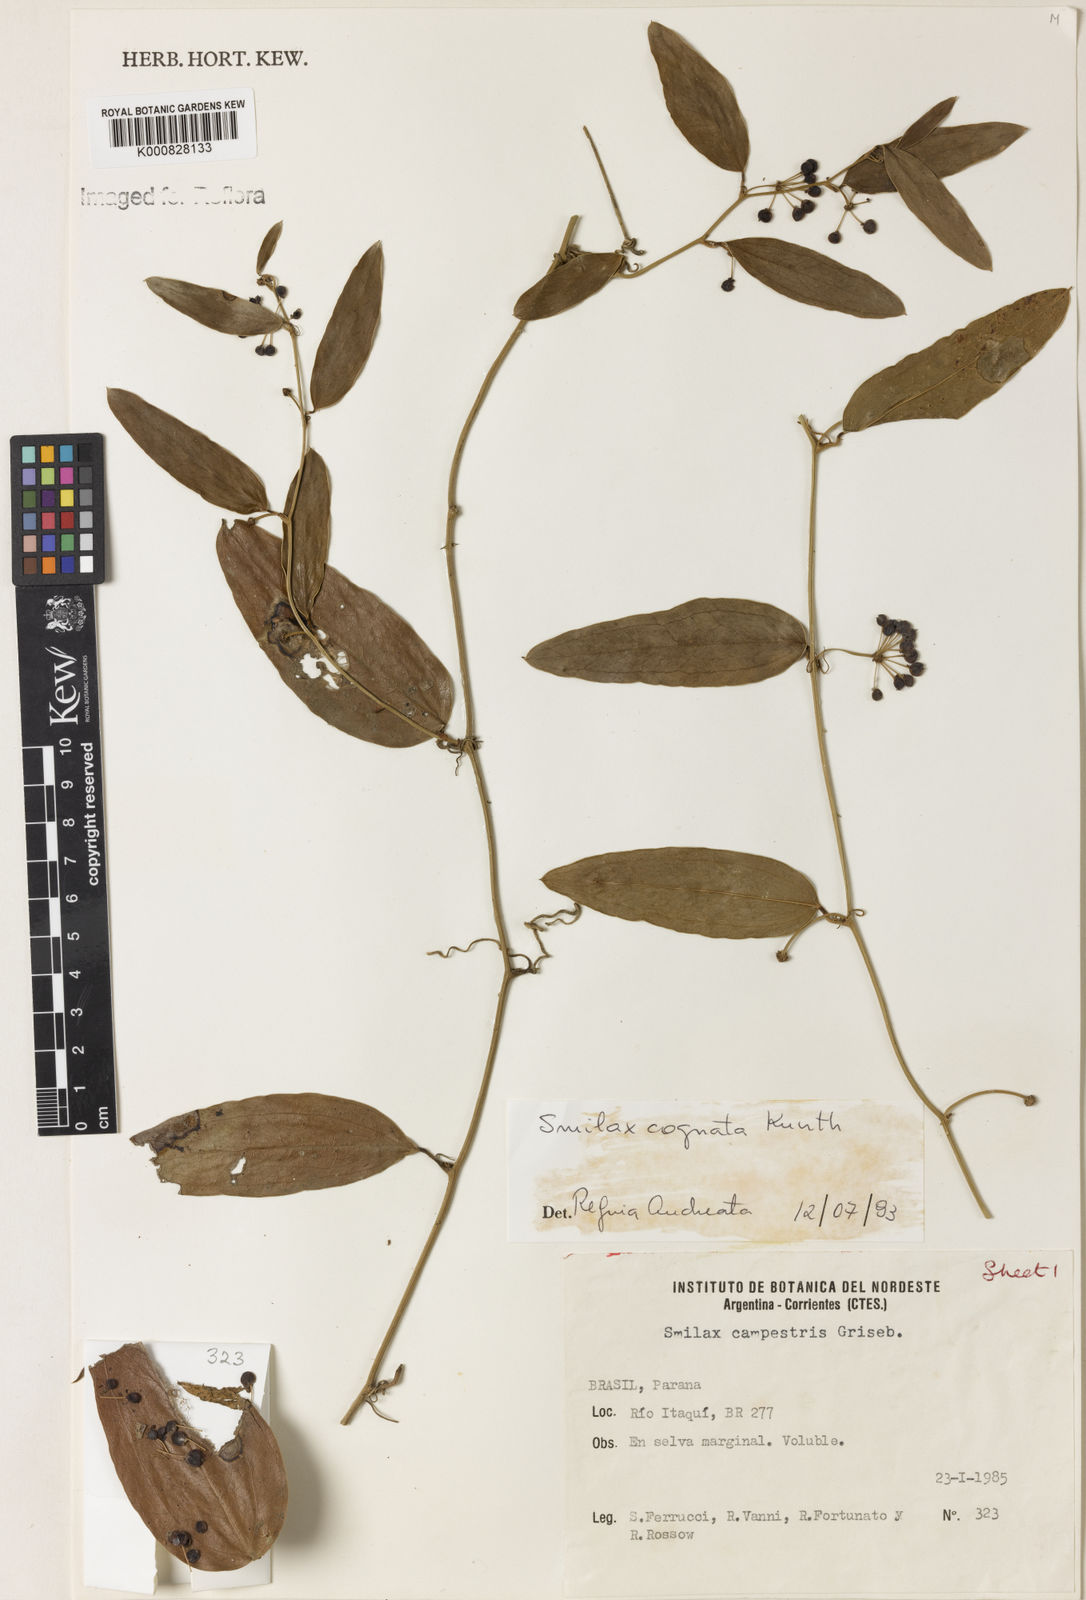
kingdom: Plantae
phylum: Tracheophyta
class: Liliopsida
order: Liliales
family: Smilacaceae
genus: Smilax
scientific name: Smilax cognata
